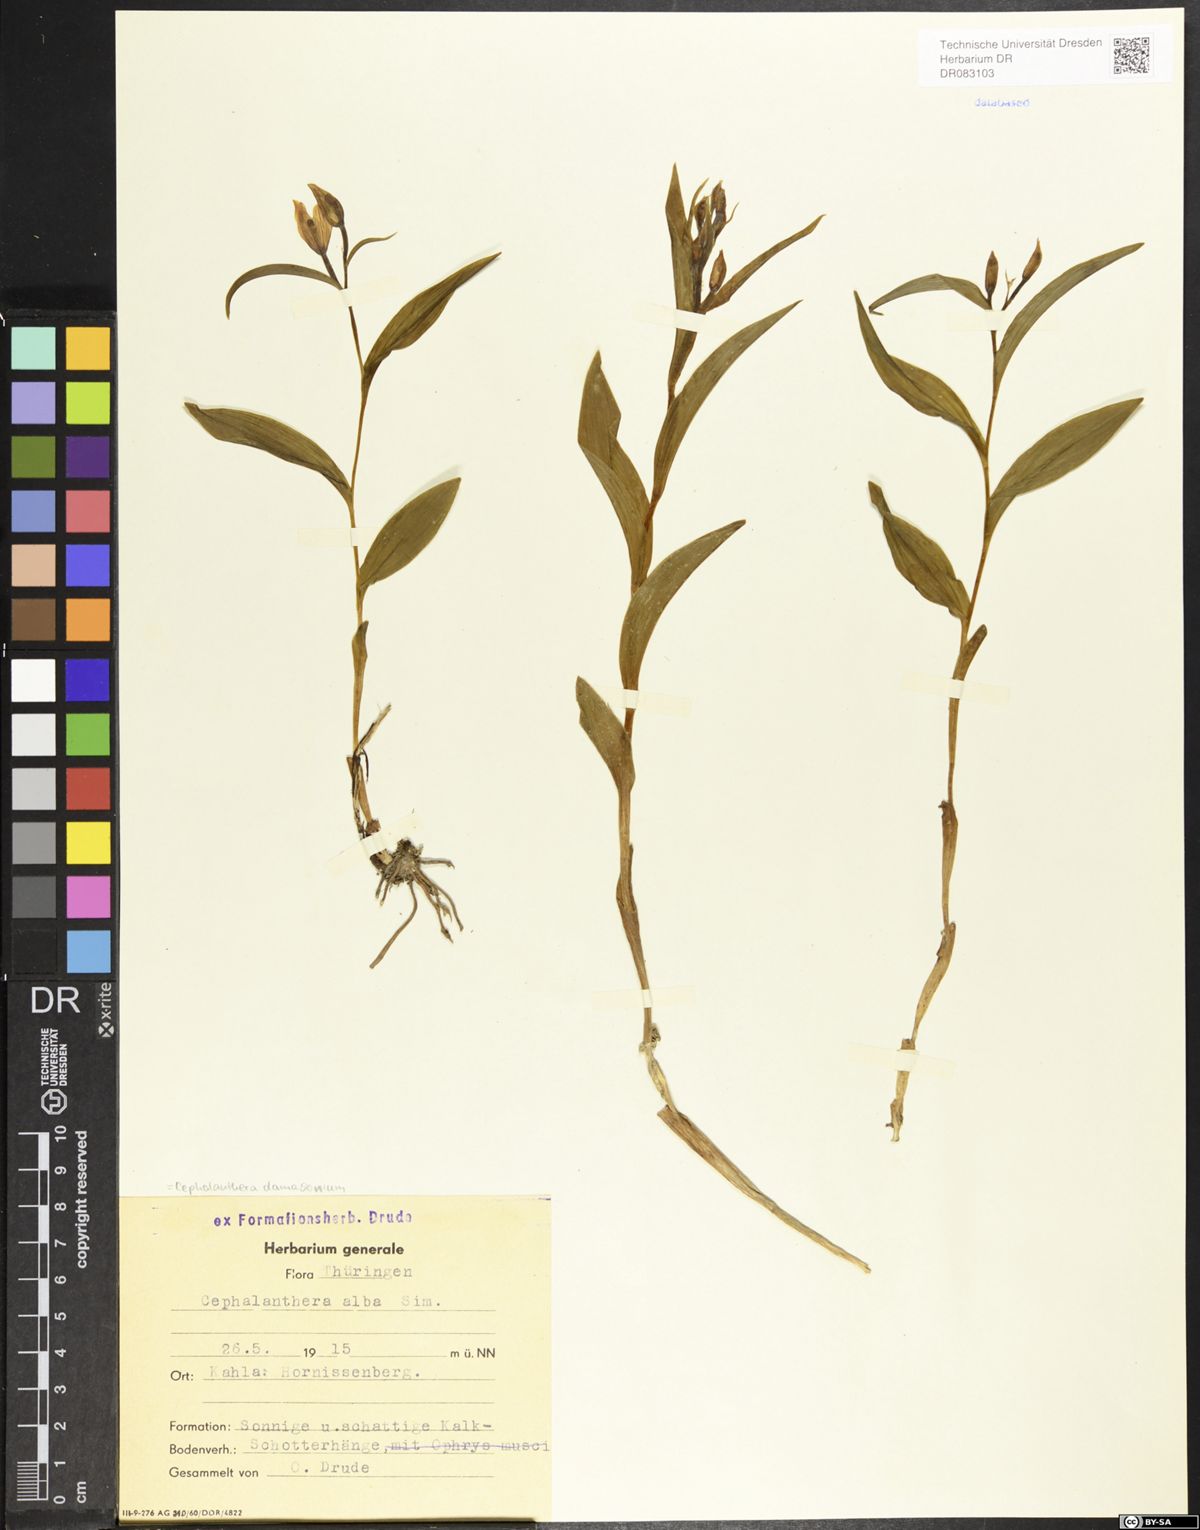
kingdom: Plantae
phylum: Tracheophyta
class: Liliopsida
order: Asparagales
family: Orchidaceae
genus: Cephalanthera
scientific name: Cephalanthera damasonium
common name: White helleborine
